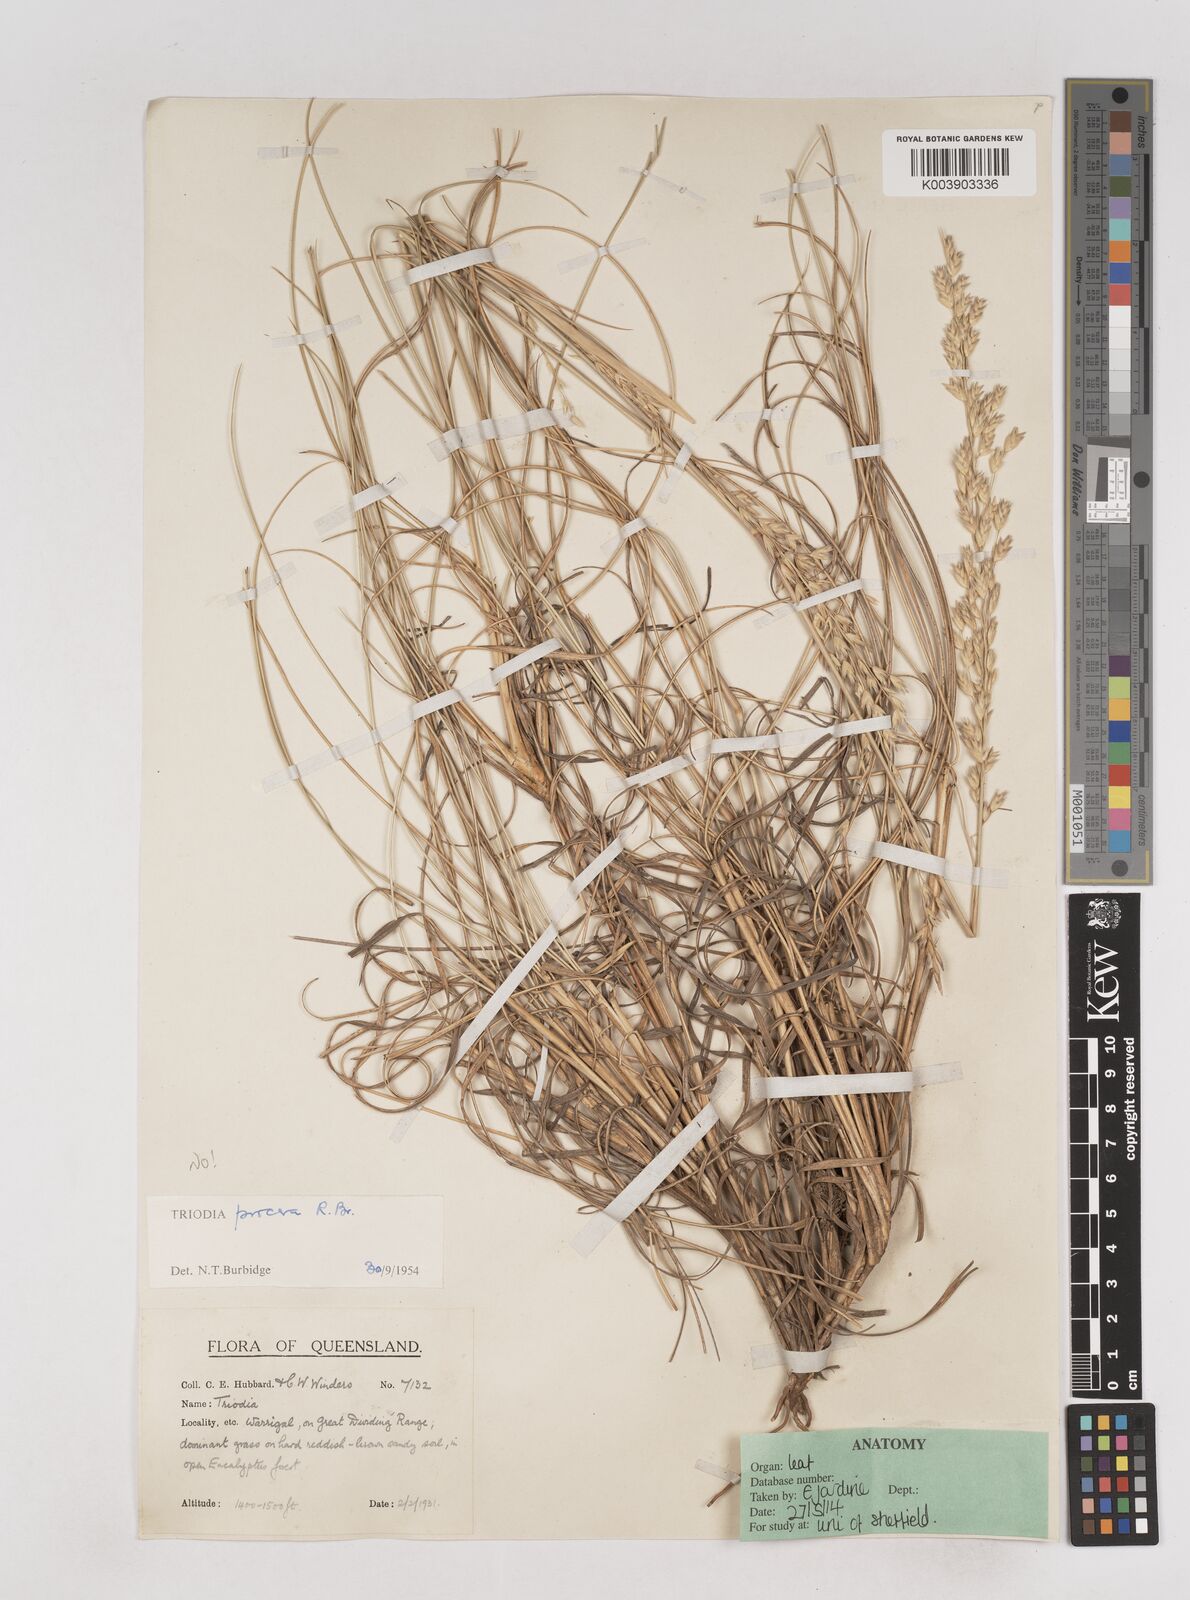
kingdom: Plantae
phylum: Tracheophyta
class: Liliopsida
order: Poales
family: Poaceae
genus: Triodia
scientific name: Triodia procera
